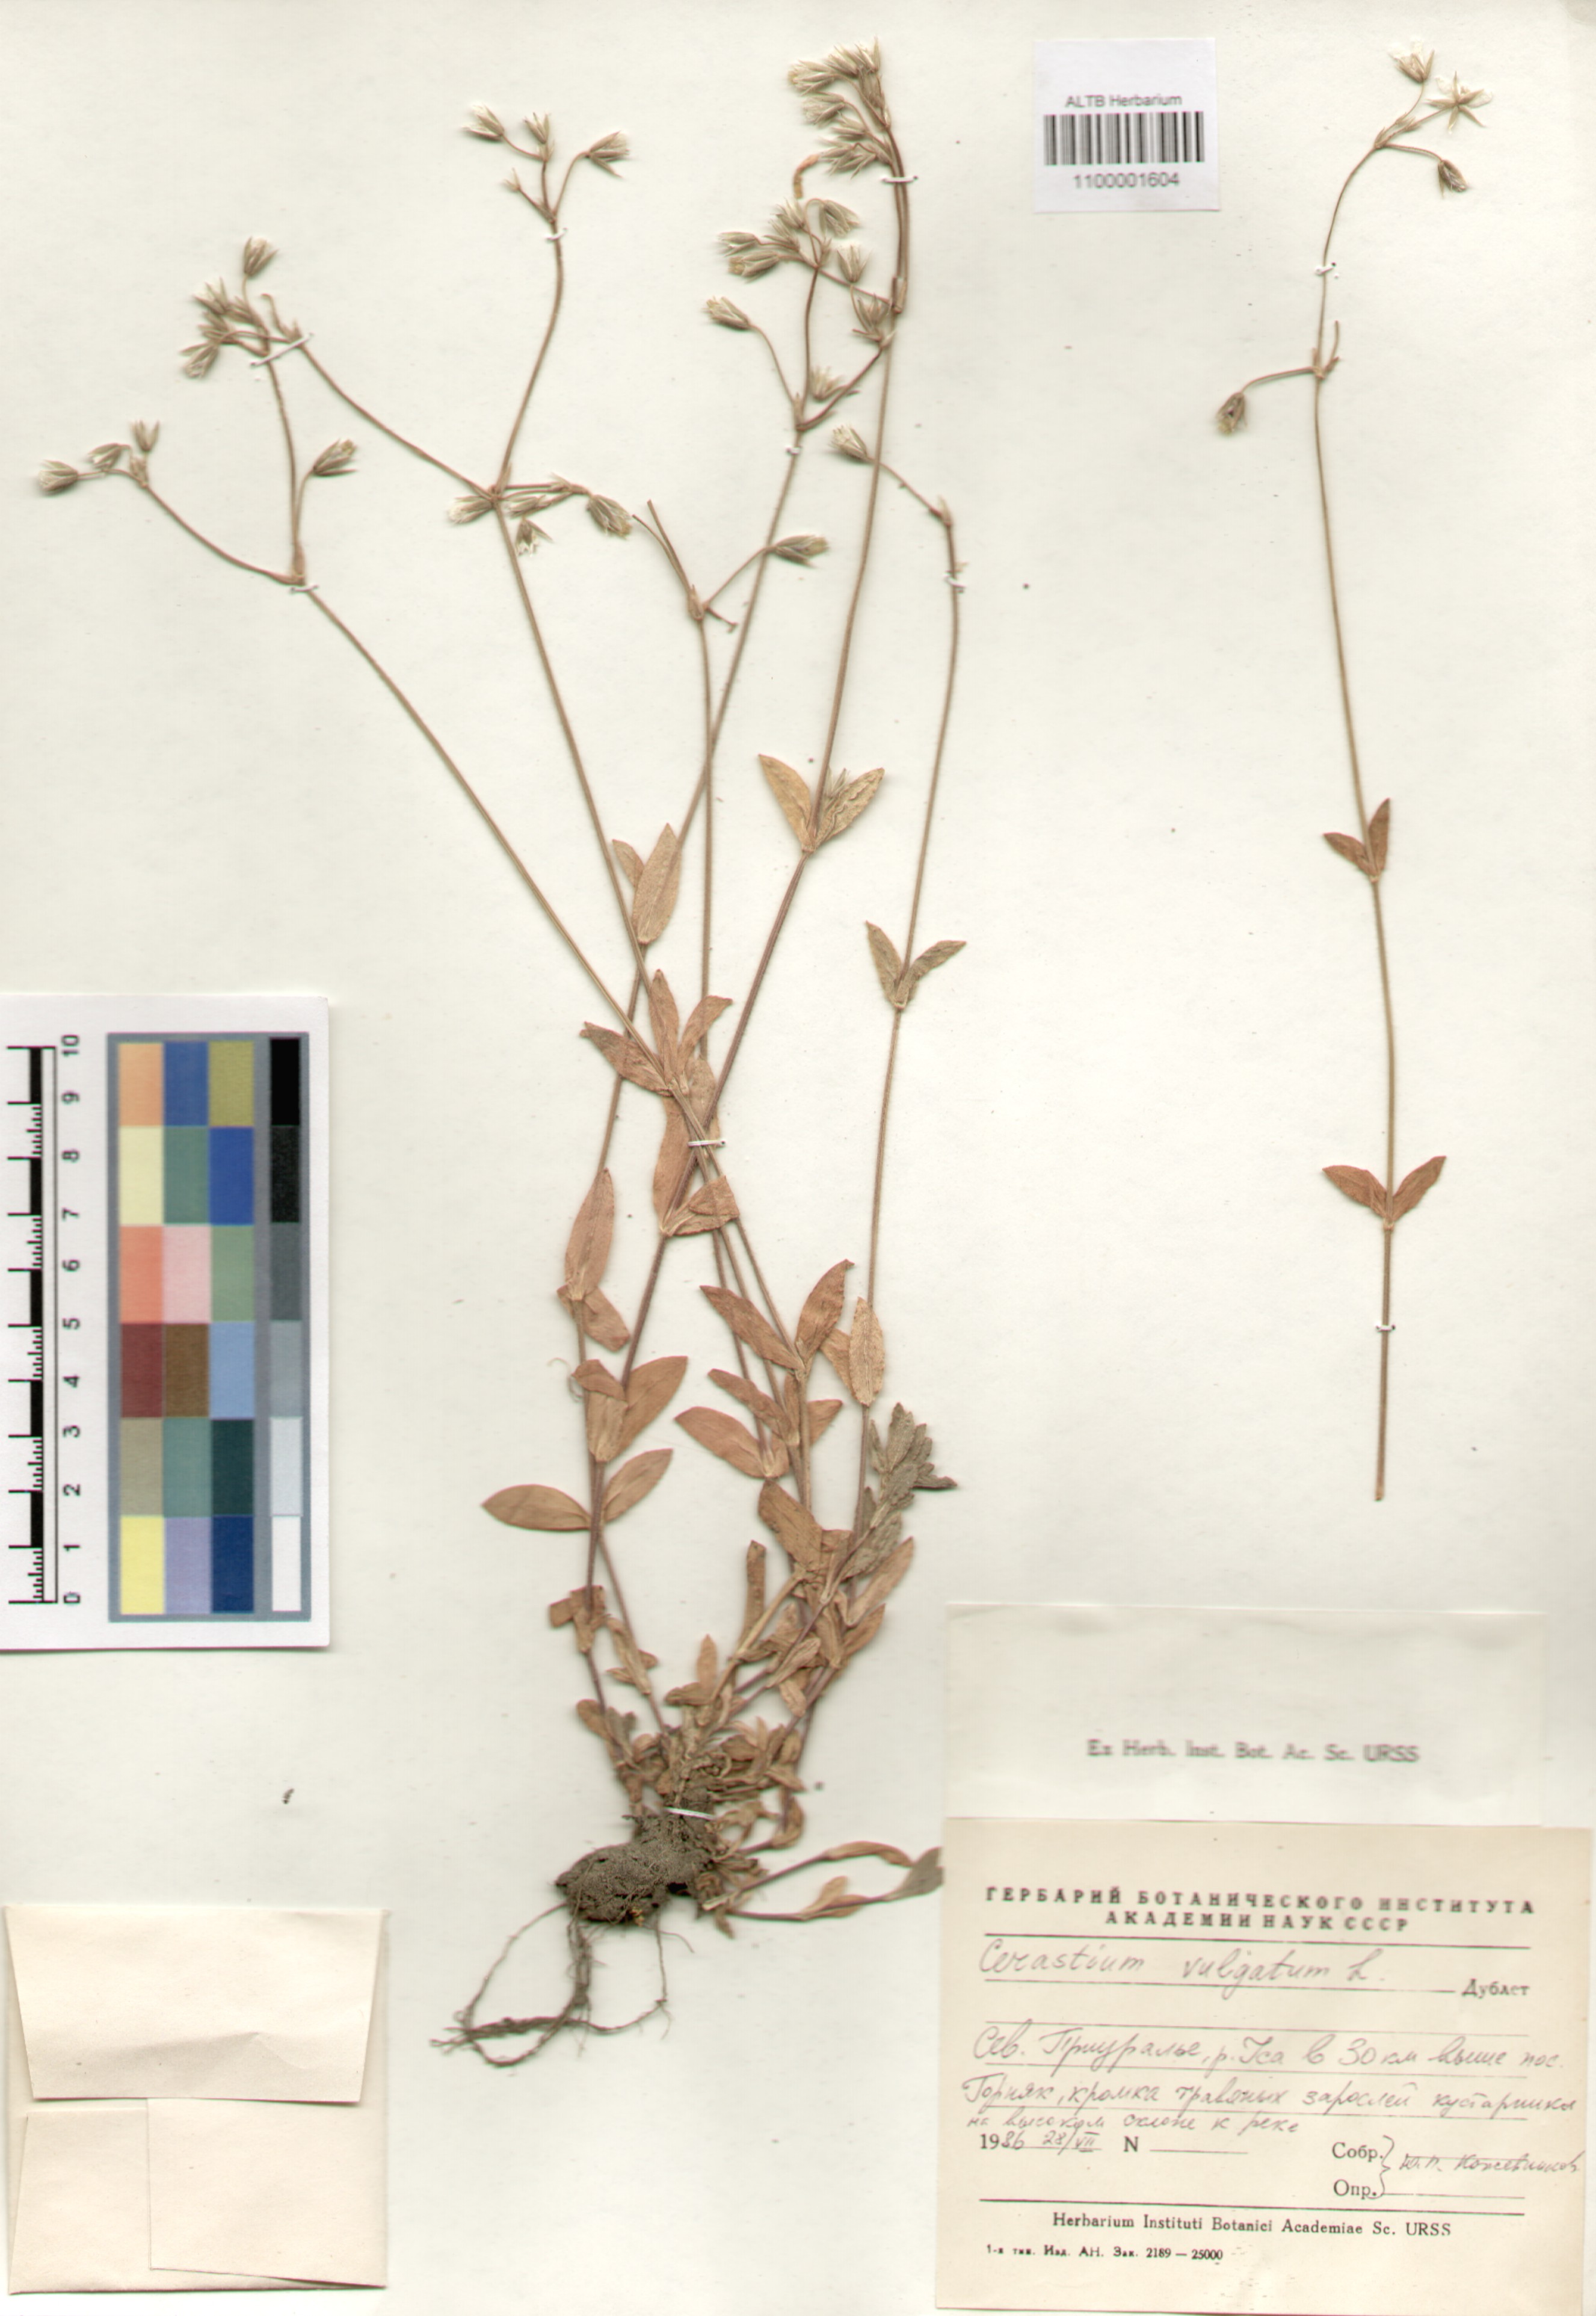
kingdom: Plantae
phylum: Tracheophyta
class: Magnoliopsida
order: Caryophyllales
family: Caryophyllaceae
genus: Cerastium
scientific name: Cerastium
